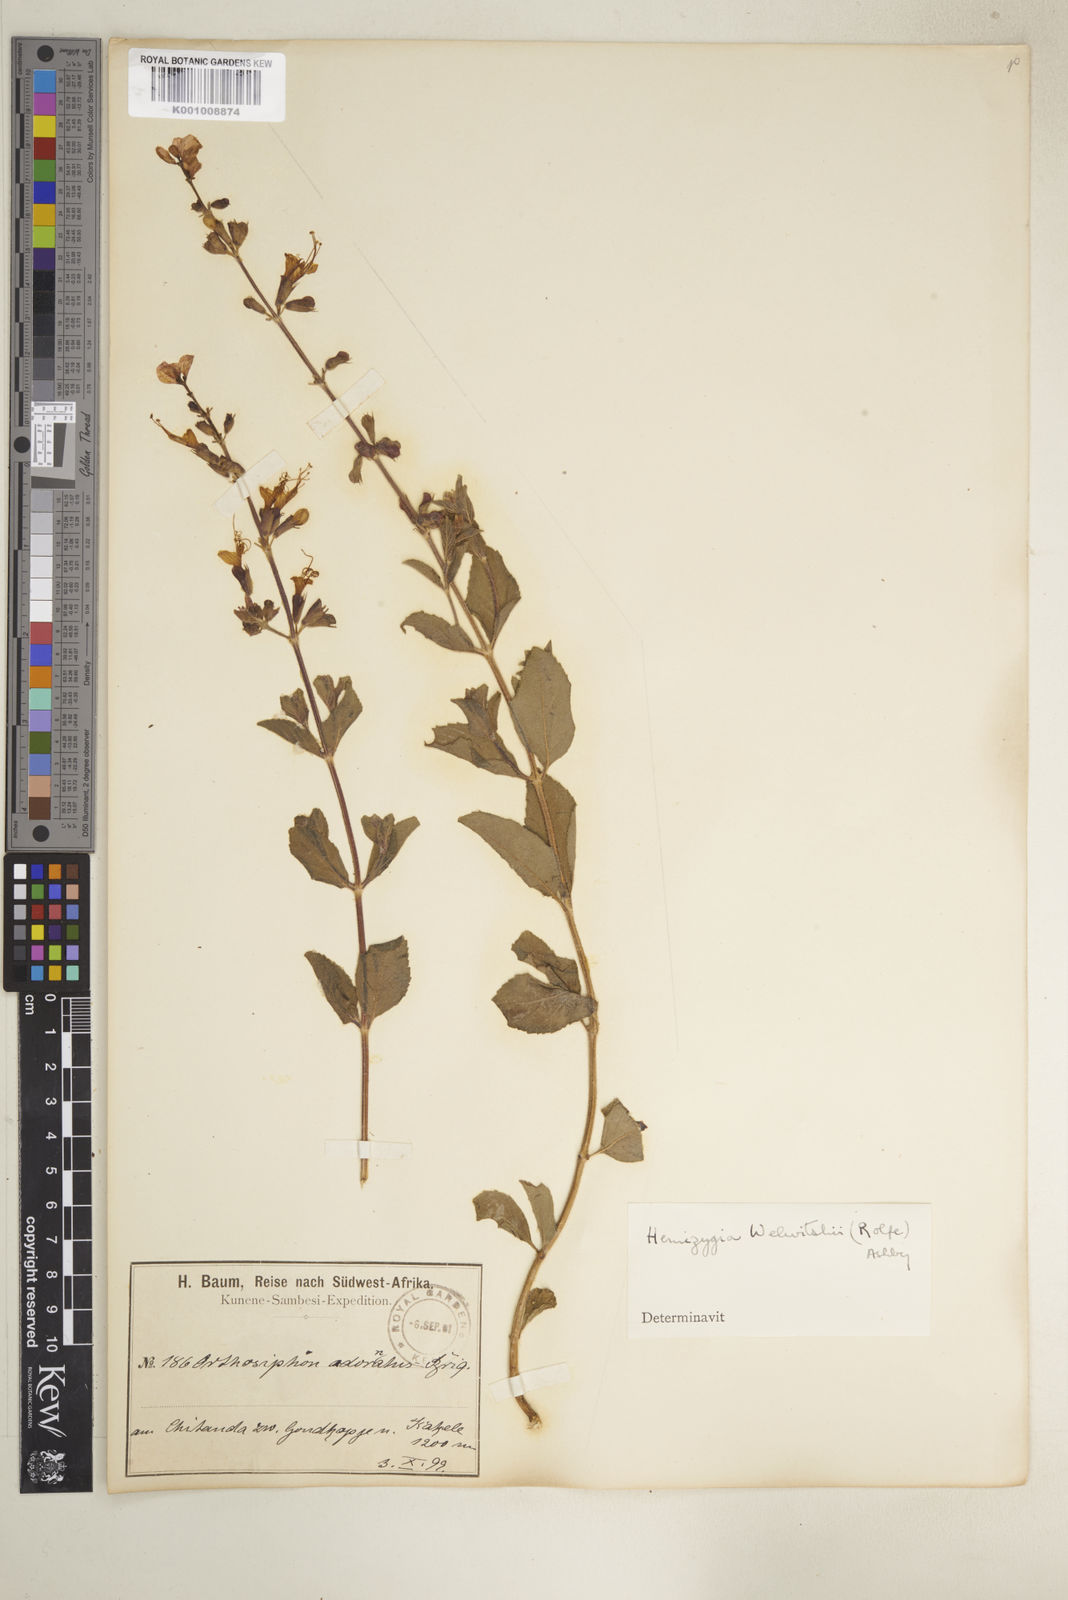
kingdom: Plantae
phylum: Tracheophyta
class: Magnoliopsida
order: Lamiales
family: Lamiaceae
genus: Syncolostemon
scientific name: Syncolostemon welwitschii
